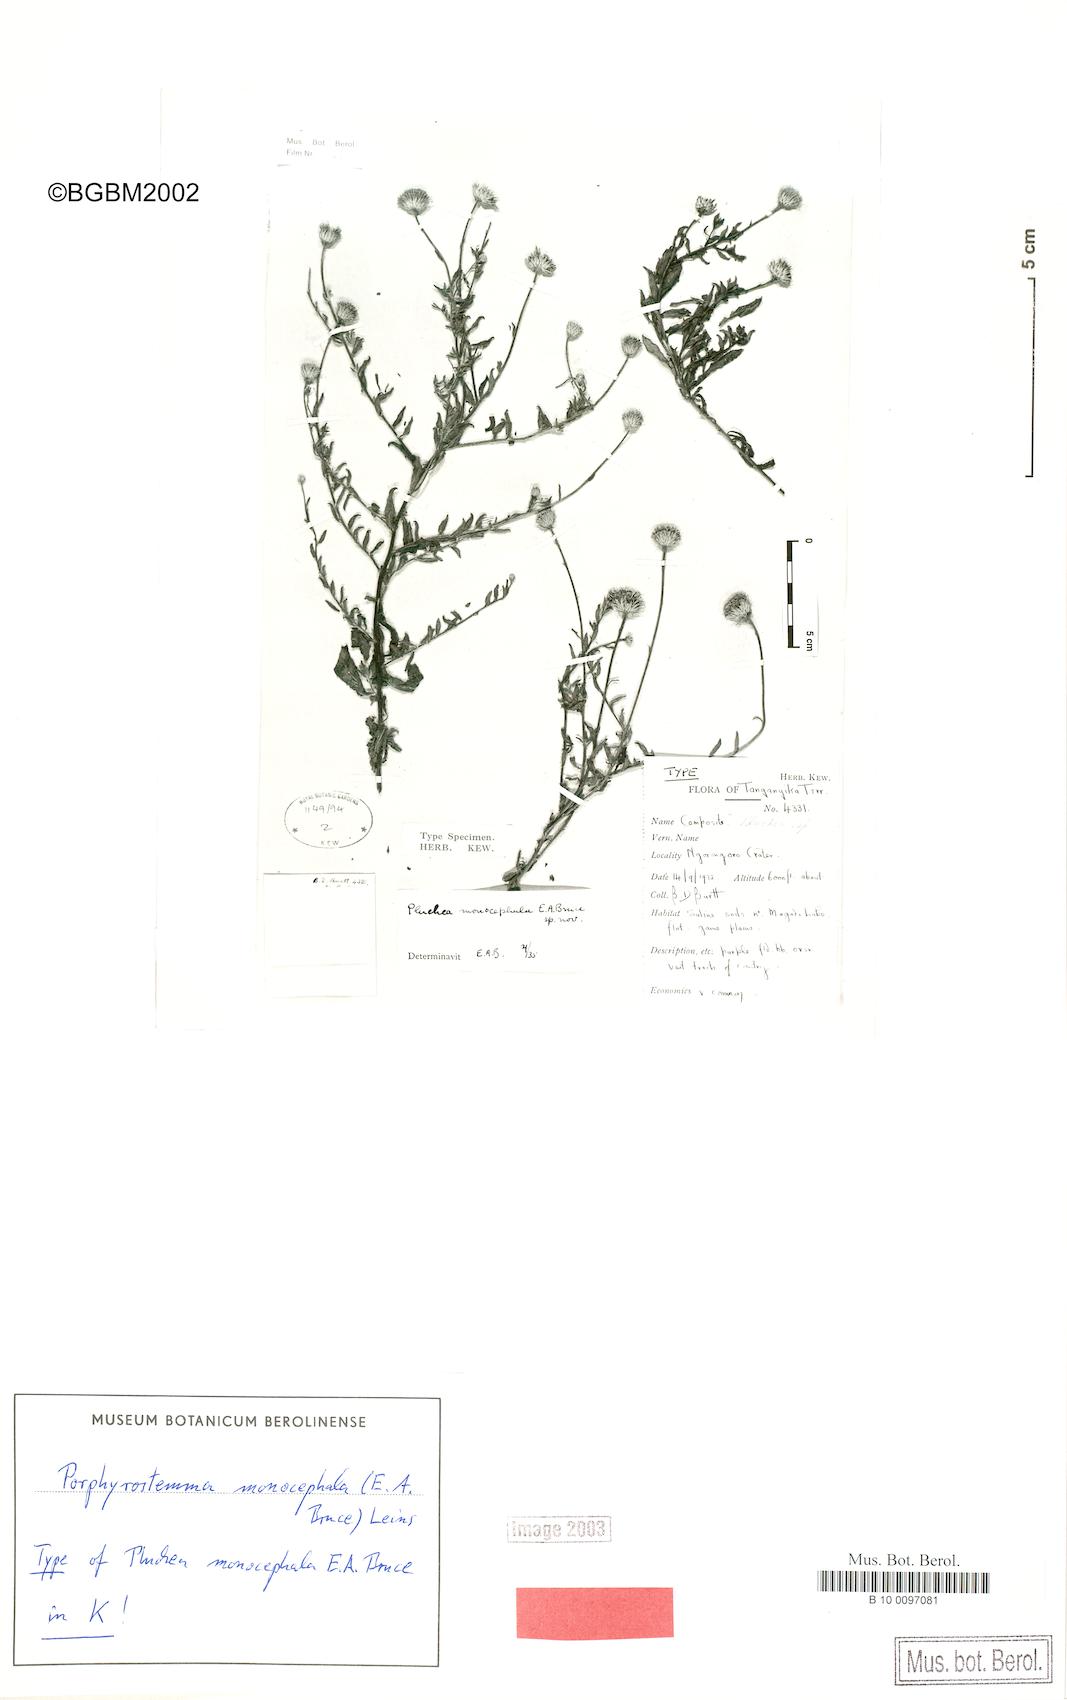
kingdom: Plantae
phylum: Tracheophyta
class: Magnoliopsida
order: Asterales
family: Asteraceae
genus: Porphyrostemma
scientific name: Porphyrostemma monocephala
